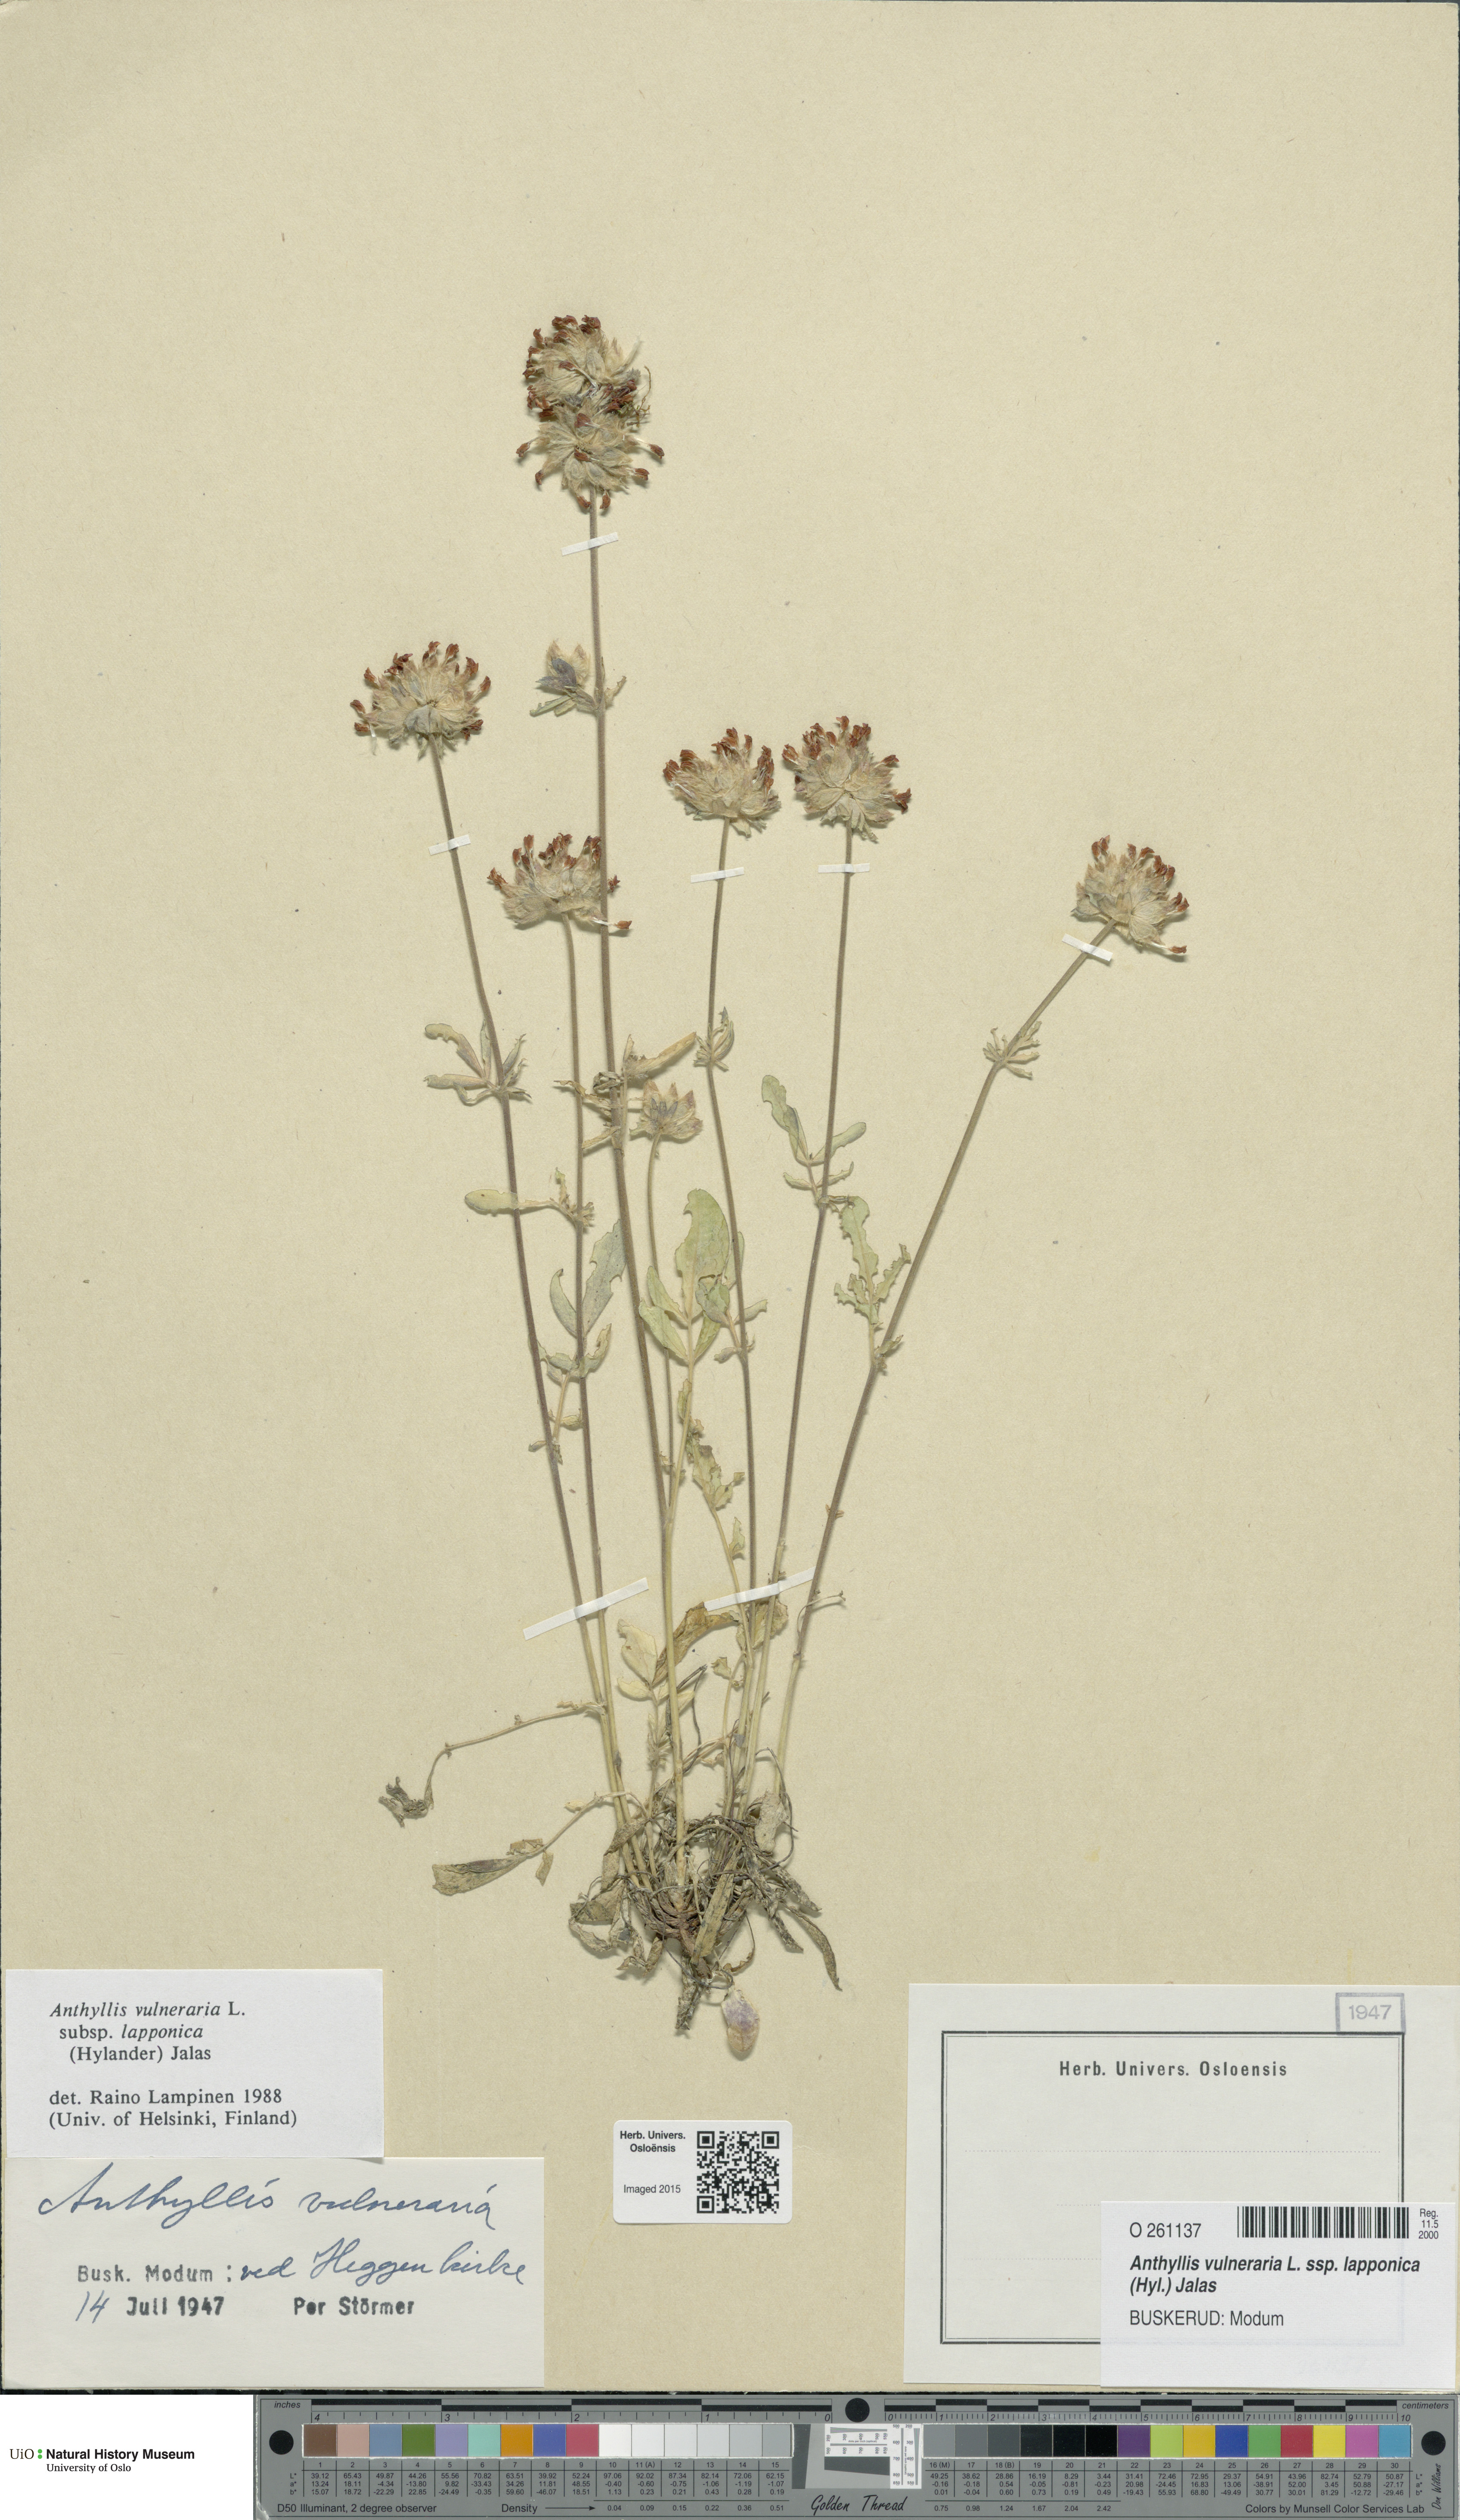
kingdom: Plantae
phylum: Tracheophyta
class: Magnoliopsida
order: Fabales
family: Fabaceae
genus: Anthyllis
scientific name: Anthyllis vulneraria
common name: Kidney vetch
